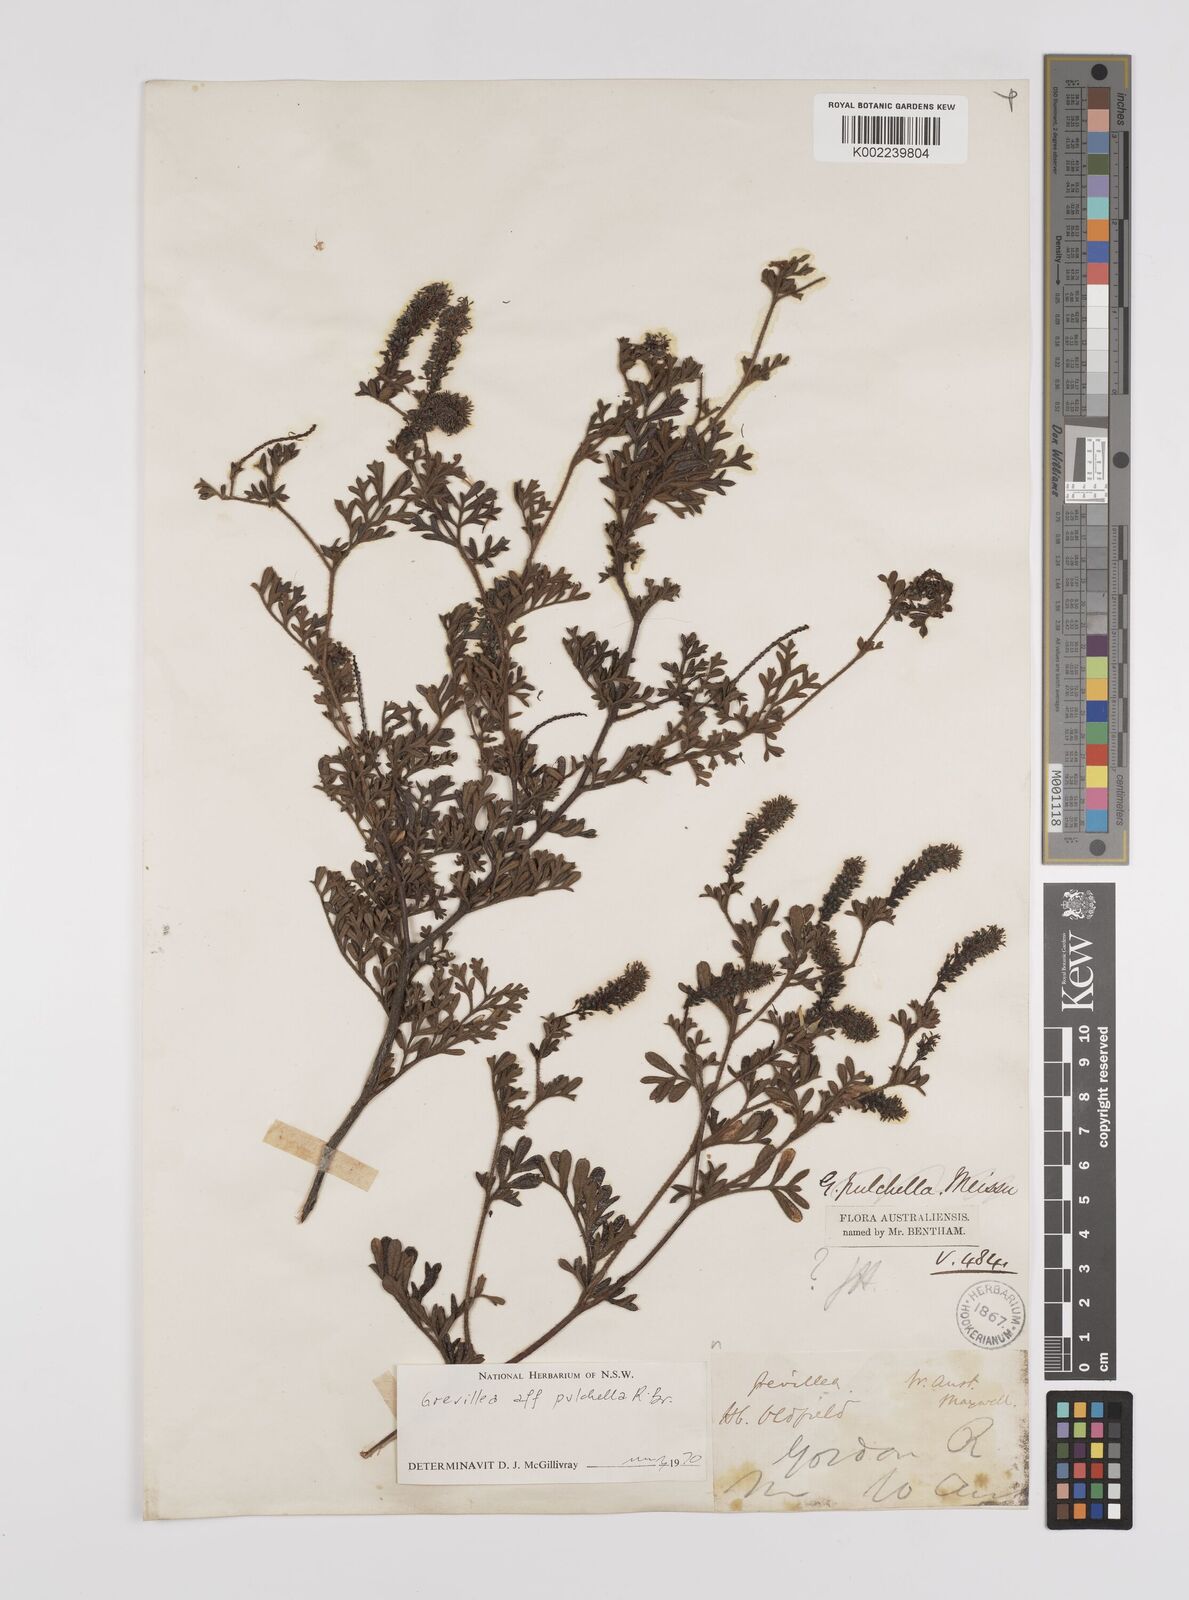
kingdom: Plantae
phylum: Tracheophyta
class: Magnoliopsida
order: Proteales
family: Proteaceae
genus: Grevillea
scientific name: Grevillea pulchella
